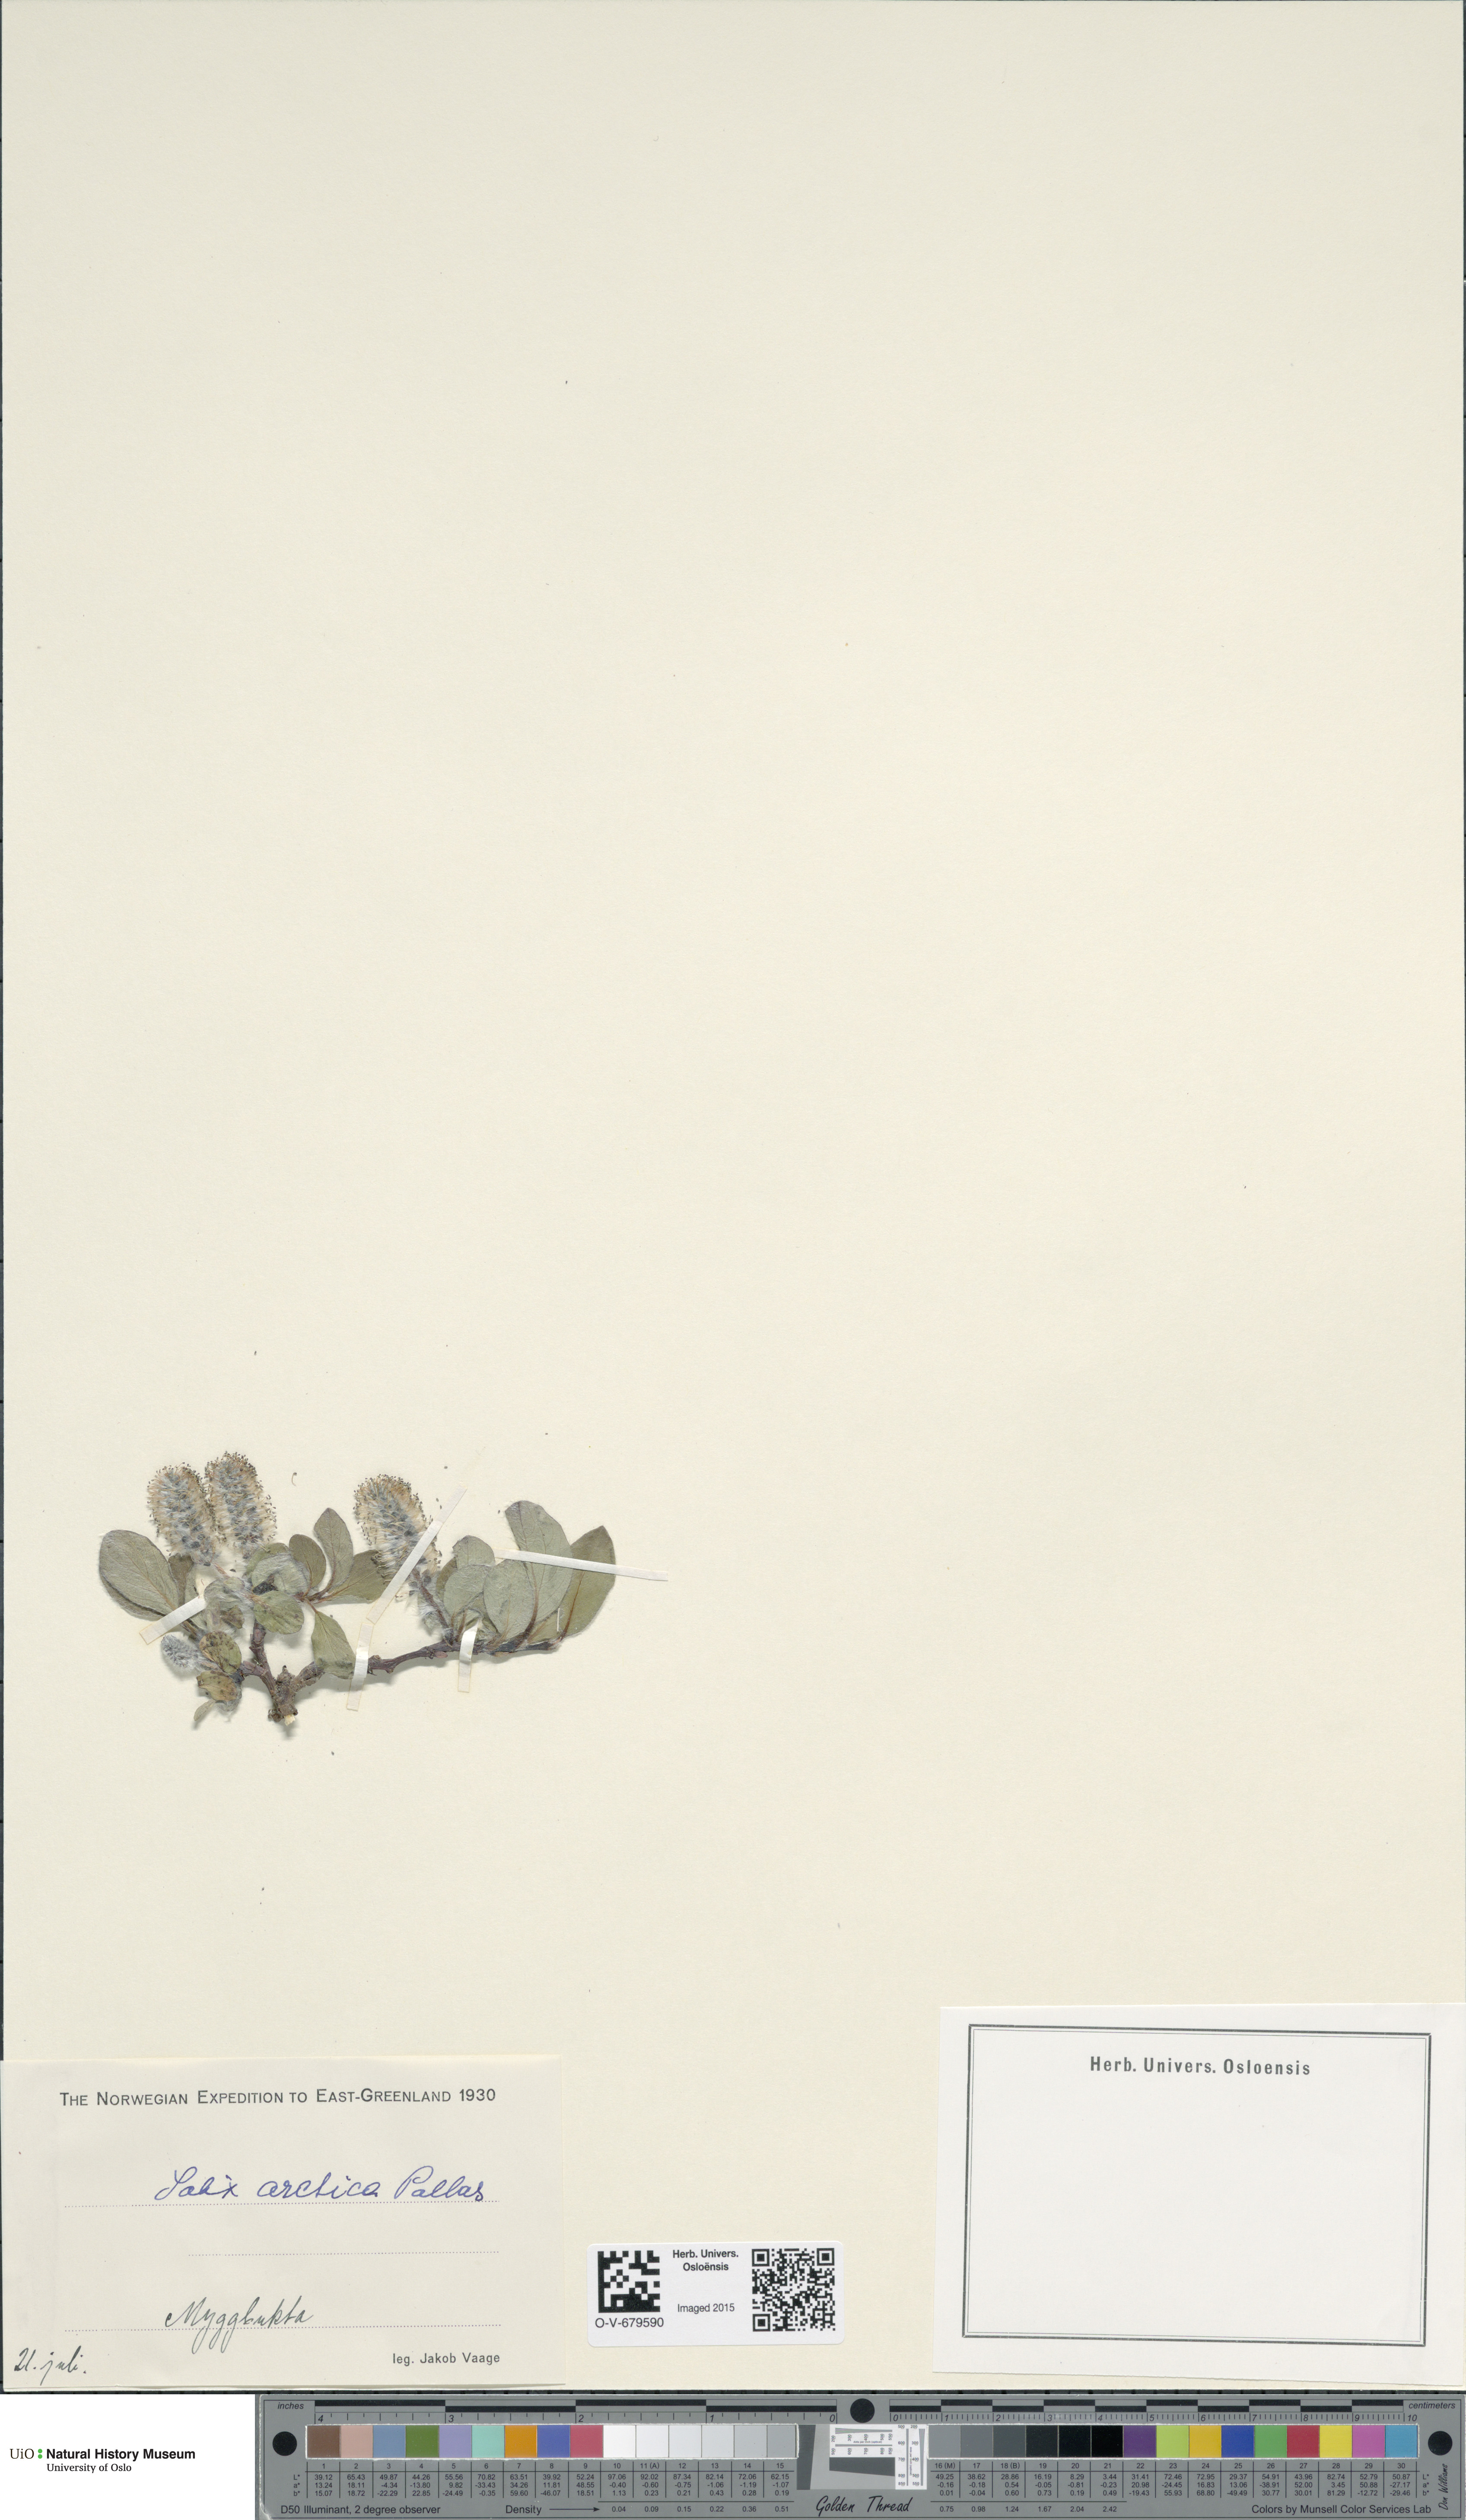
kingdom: Plantae
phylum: Tracheophyta
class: Magnoliopsida
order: Malpighiales
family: Salicaceae
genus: Salix
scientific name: Salix arctica
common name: Arctic willow
